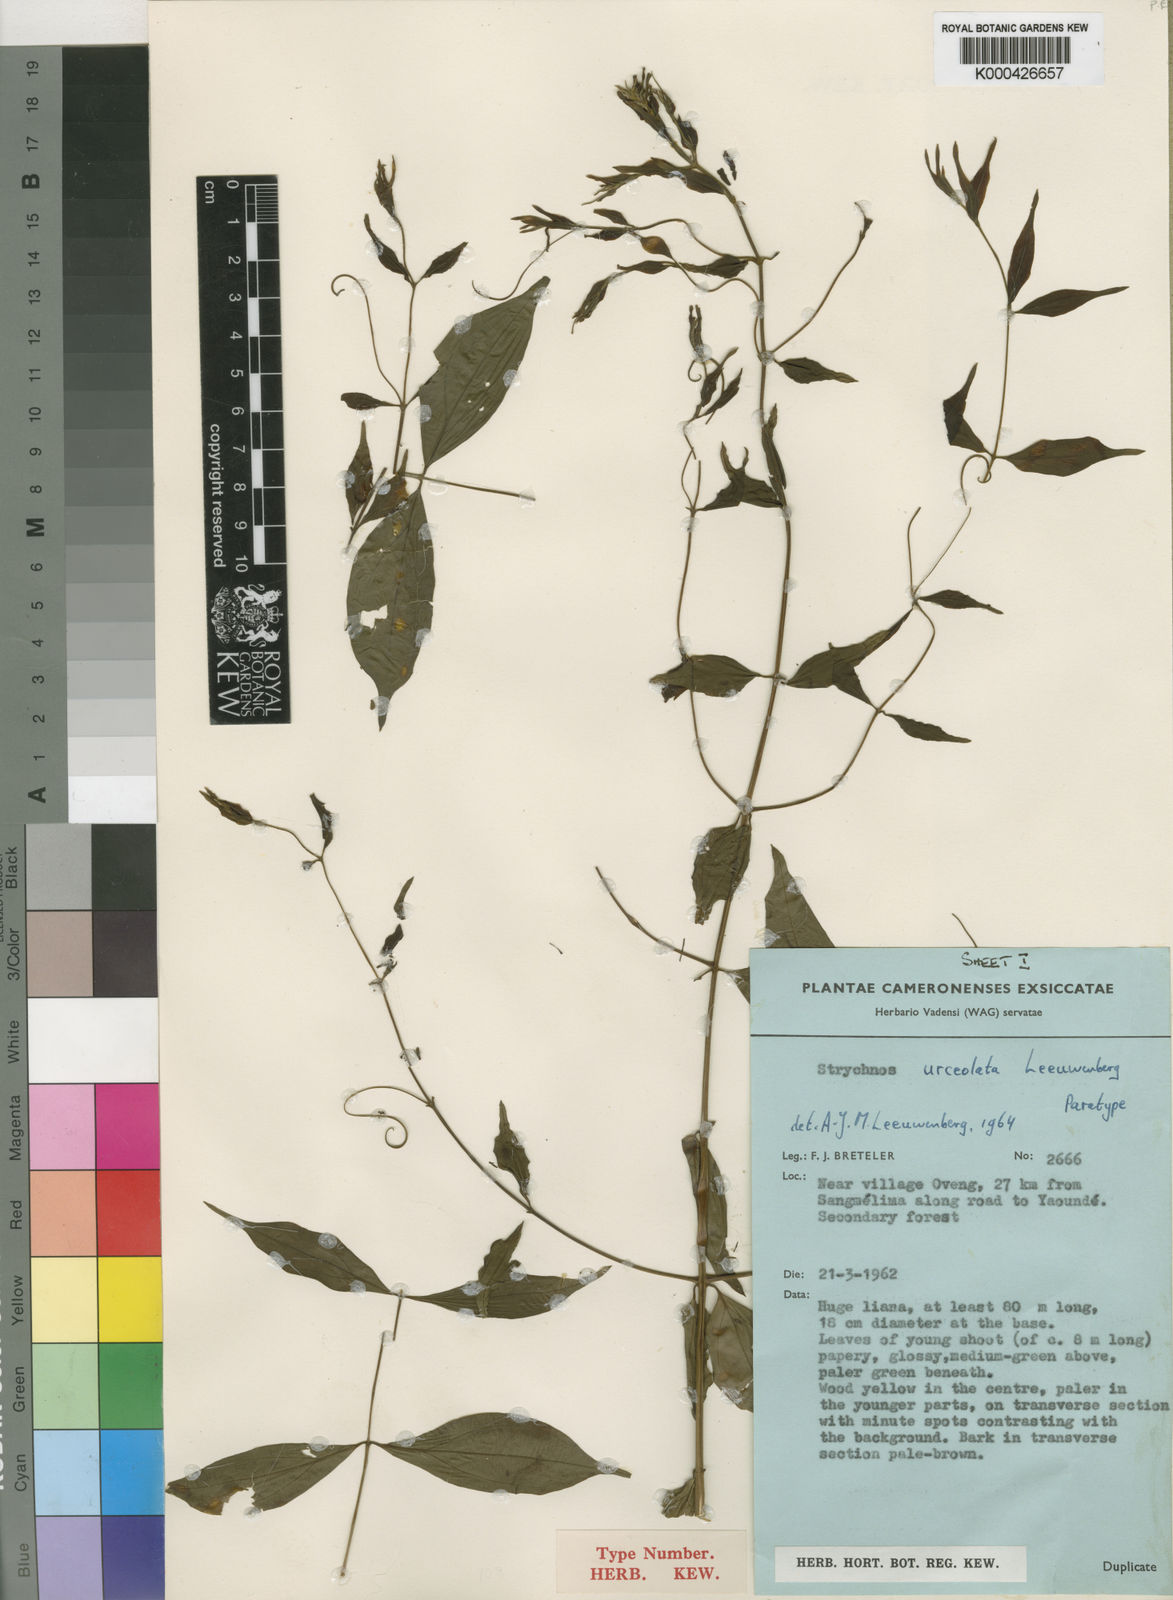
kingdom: Plantae
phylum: Tracheophyta
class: Magnoliopsida
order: Gentianales
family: Loganiaceae
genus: Strychnos
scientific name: Strychnos urceolata
